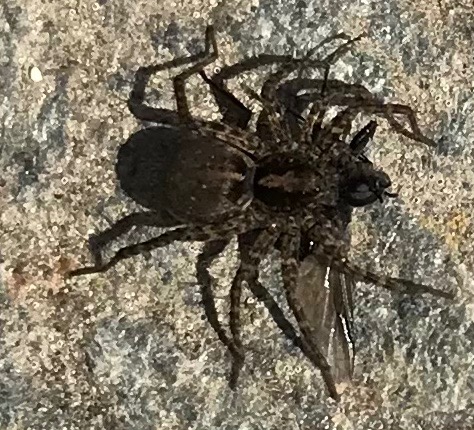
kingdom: Animalia
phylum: Arthropoda
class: Arachnida
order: Araneae
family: Lycosidae
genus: Pardosa
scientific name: Pardosa
